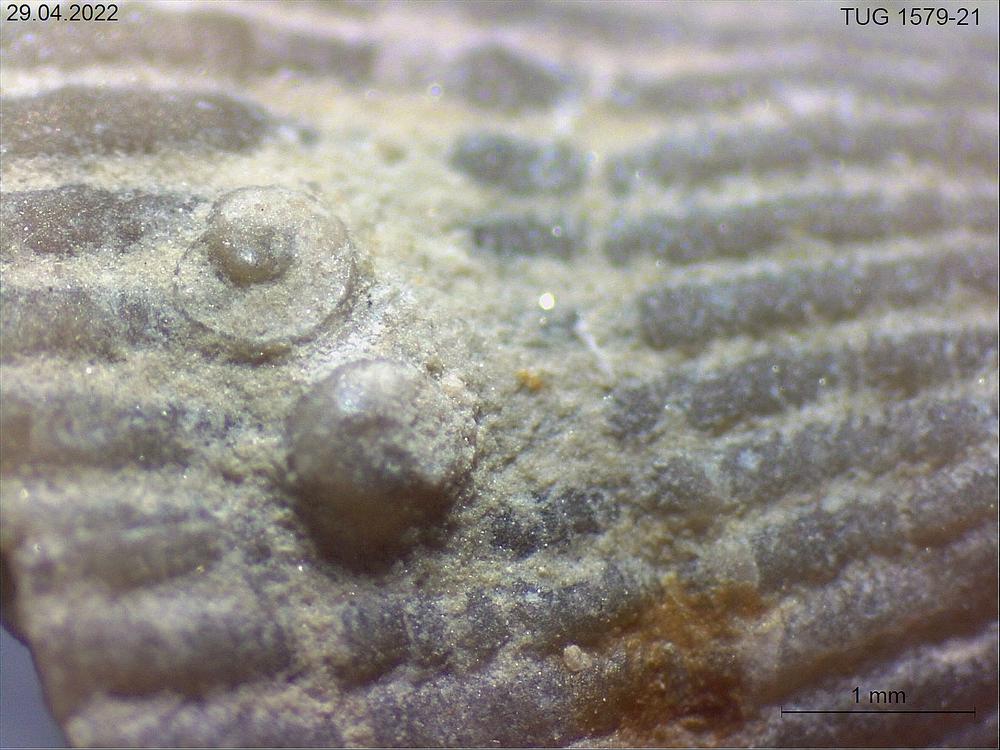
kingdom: Animalia
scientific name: Animalia
